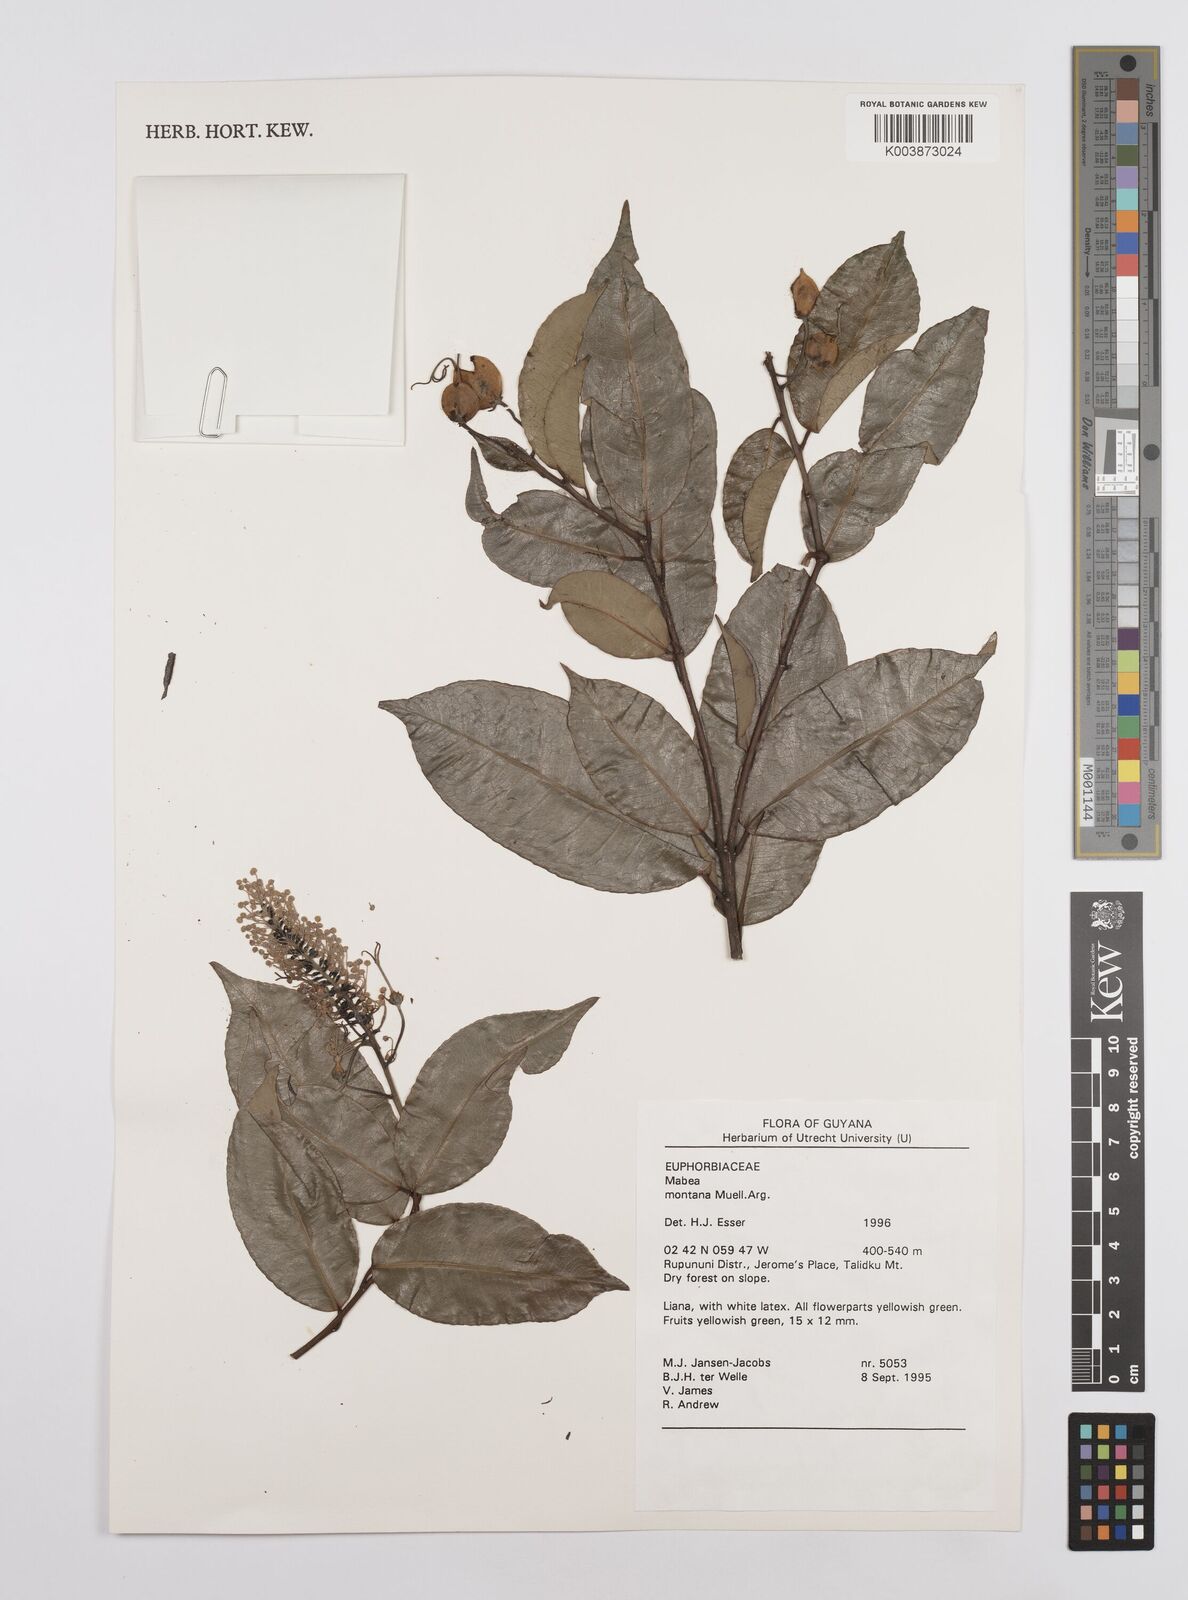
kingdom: Plantae
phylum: Tracheophyta
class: Magnoliopsida
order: Malpighiales
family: Euphorbiaceae
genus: Mabea
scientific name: Mabea montana
